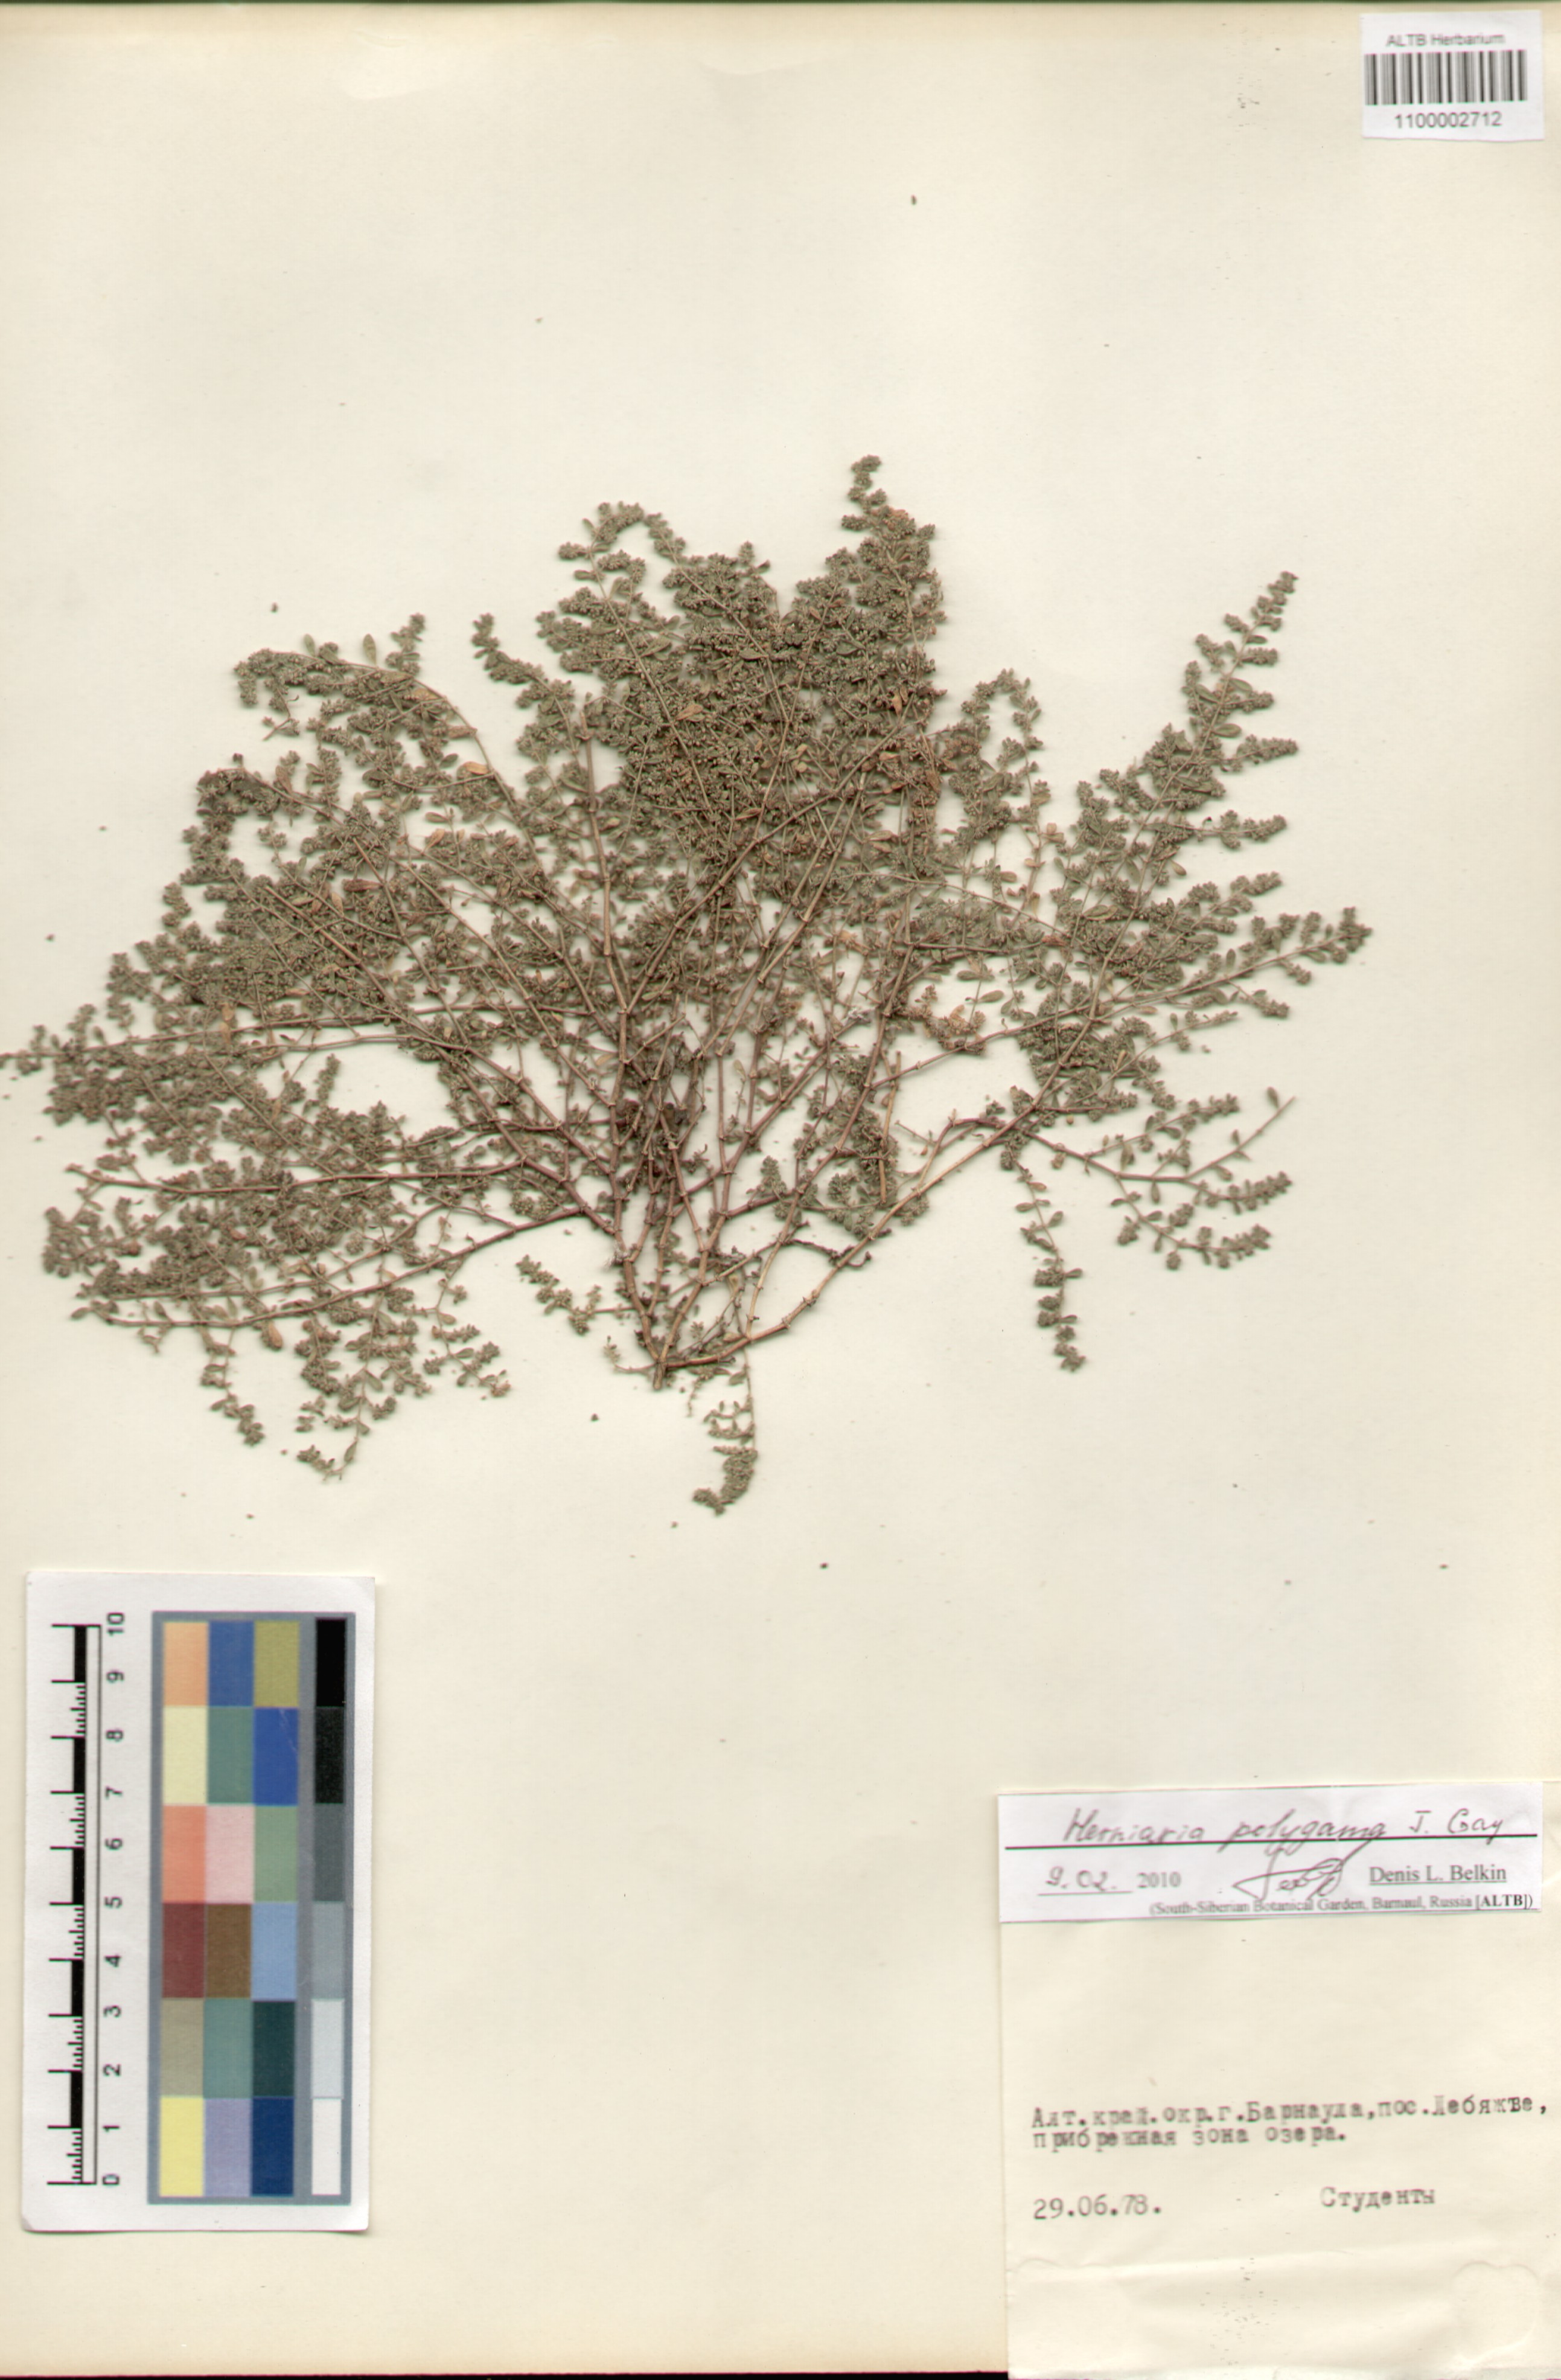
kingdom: Plantae
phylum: Tracheophyta
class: Magnoliopsida
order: Caryophyllales
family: Caryophyllaceae
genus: Herniaria
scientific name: Herniaria polygama
